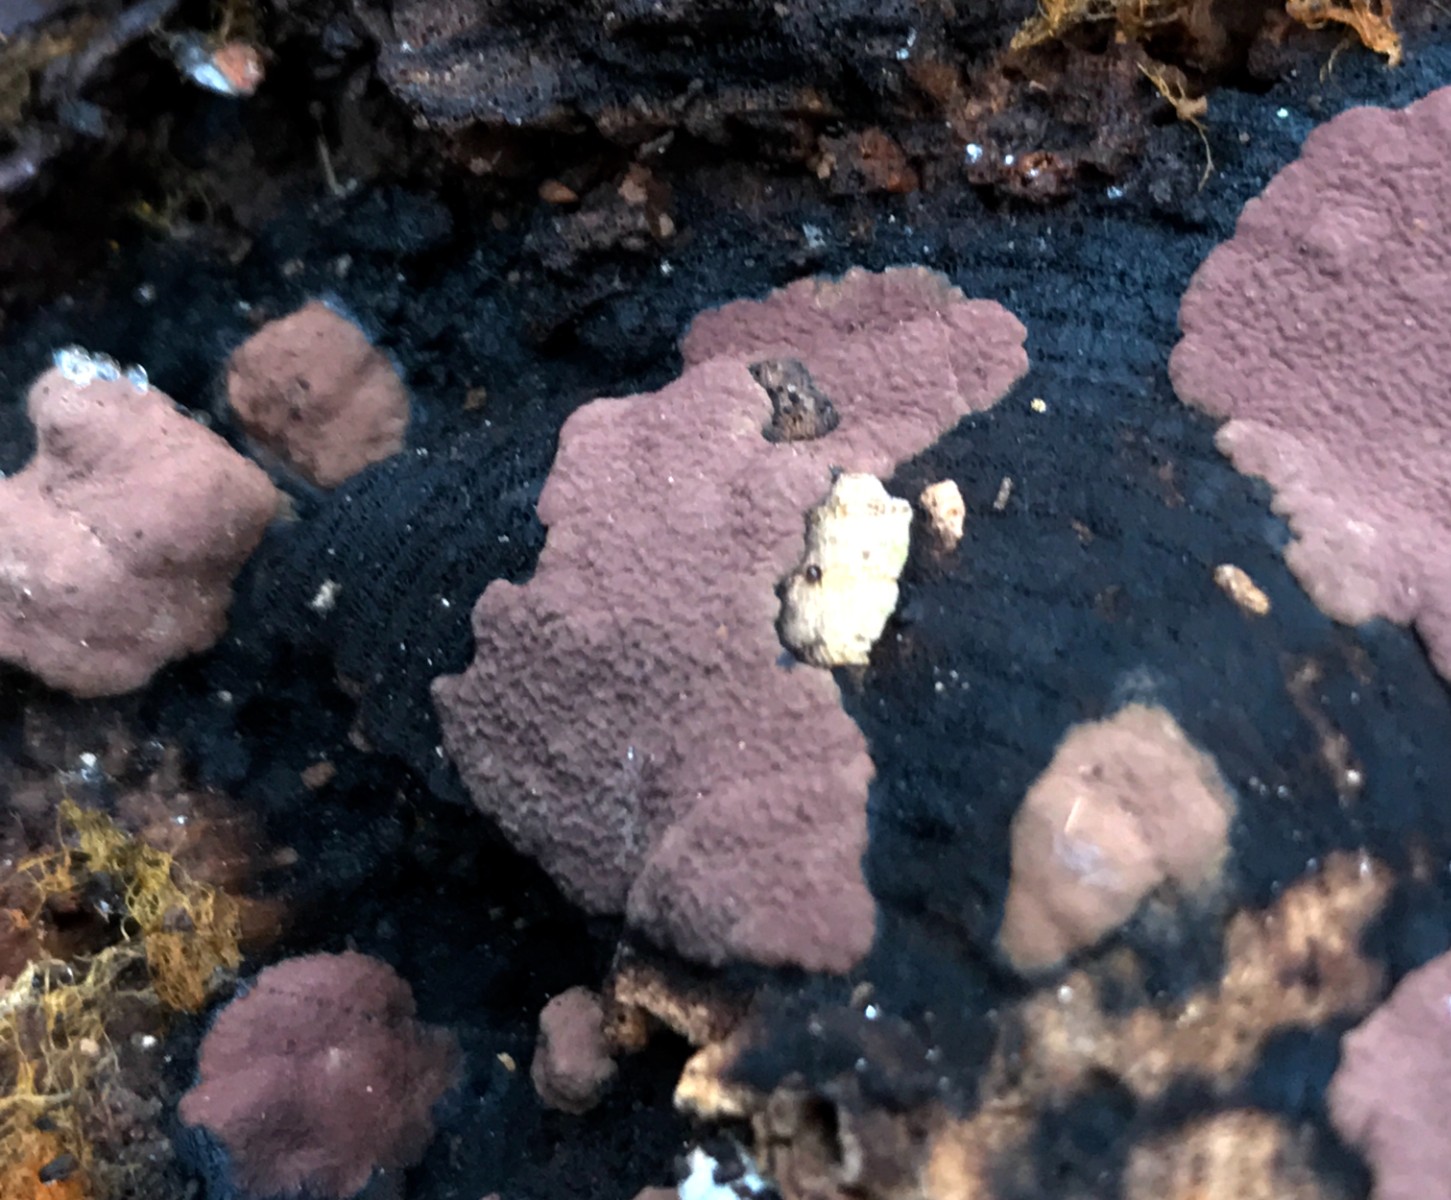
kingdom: Fungi
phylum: Ascomycota
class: Sordariomycetes
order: Xylariales
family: Hypoxylaceae
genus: Hypoxylon
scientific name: Hypoxylon petriniae
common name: nedsænket kulbær
